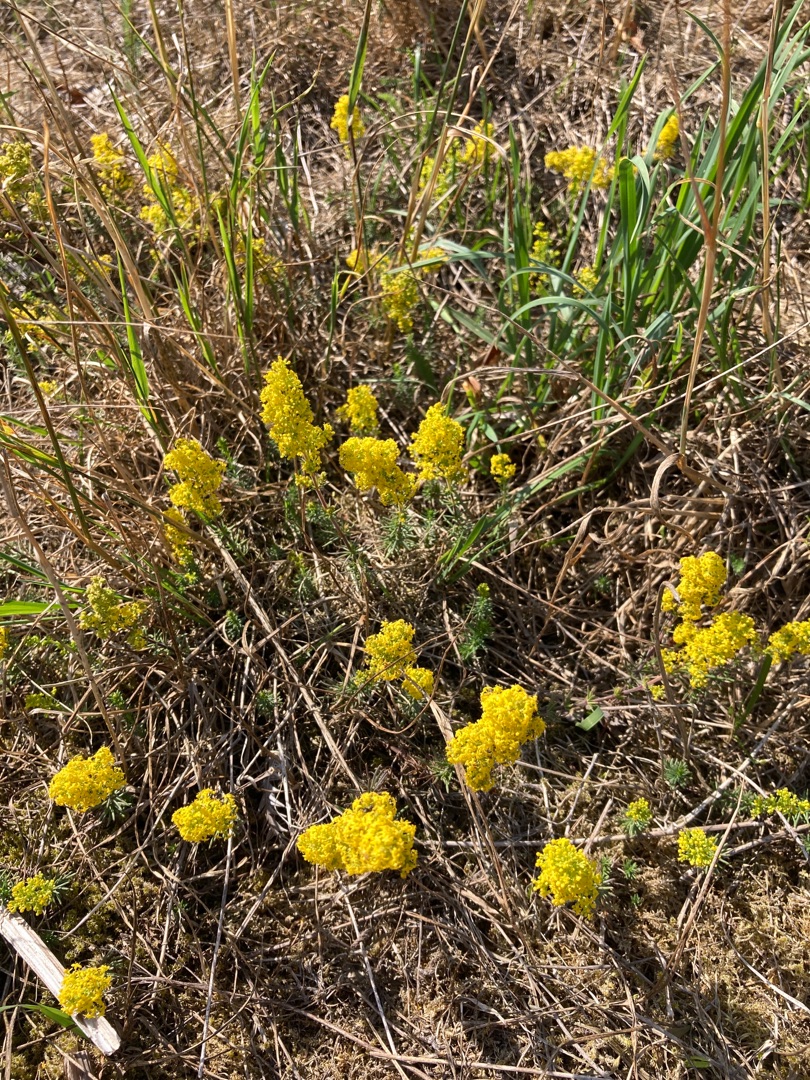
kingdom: Plantae
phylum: Tracheophyta
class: Magnoliopsida
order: Gentianales
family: Rubiaceae
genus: Galium
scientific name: Galium verum
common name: Gul snerre
